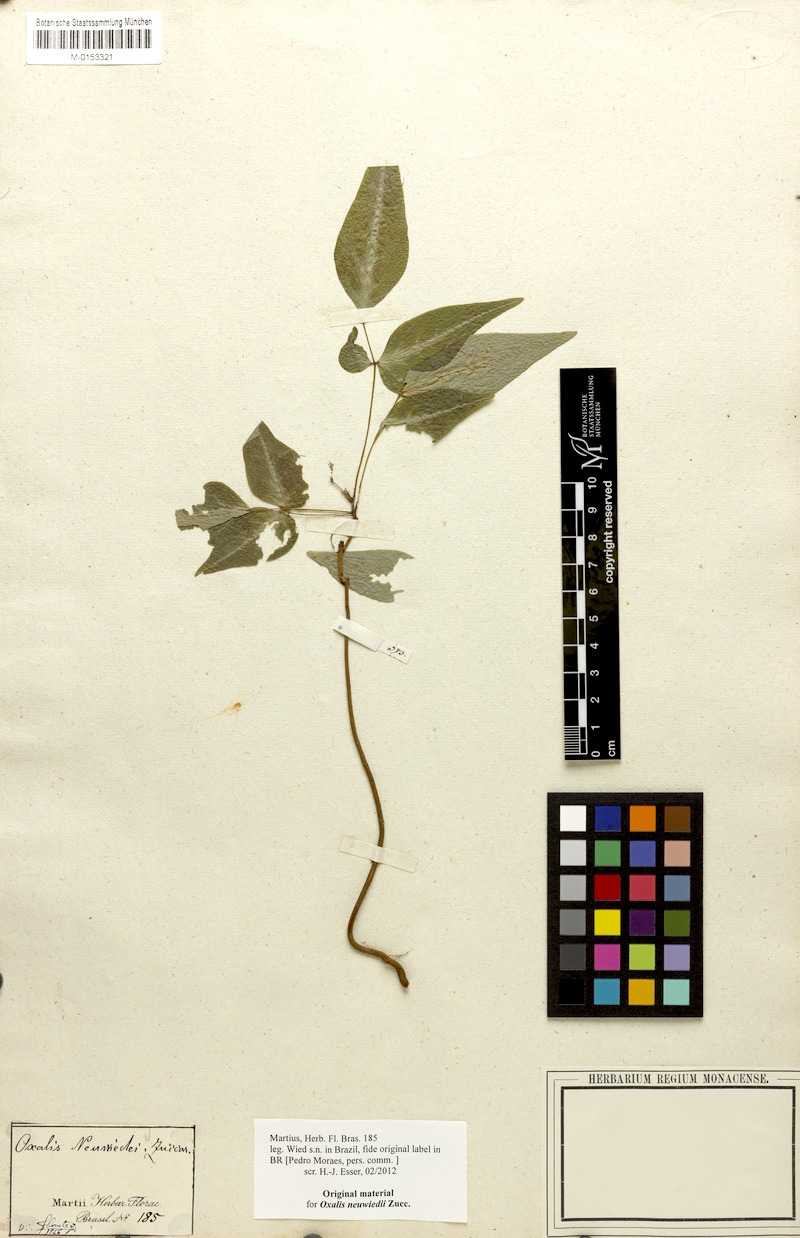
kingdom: Plantae
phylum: Tracheophyta
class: Magnoliopsida
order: Oxalidales
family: Oxalidaceae
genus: Oxalis
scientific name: Oxalis neuwiedii
